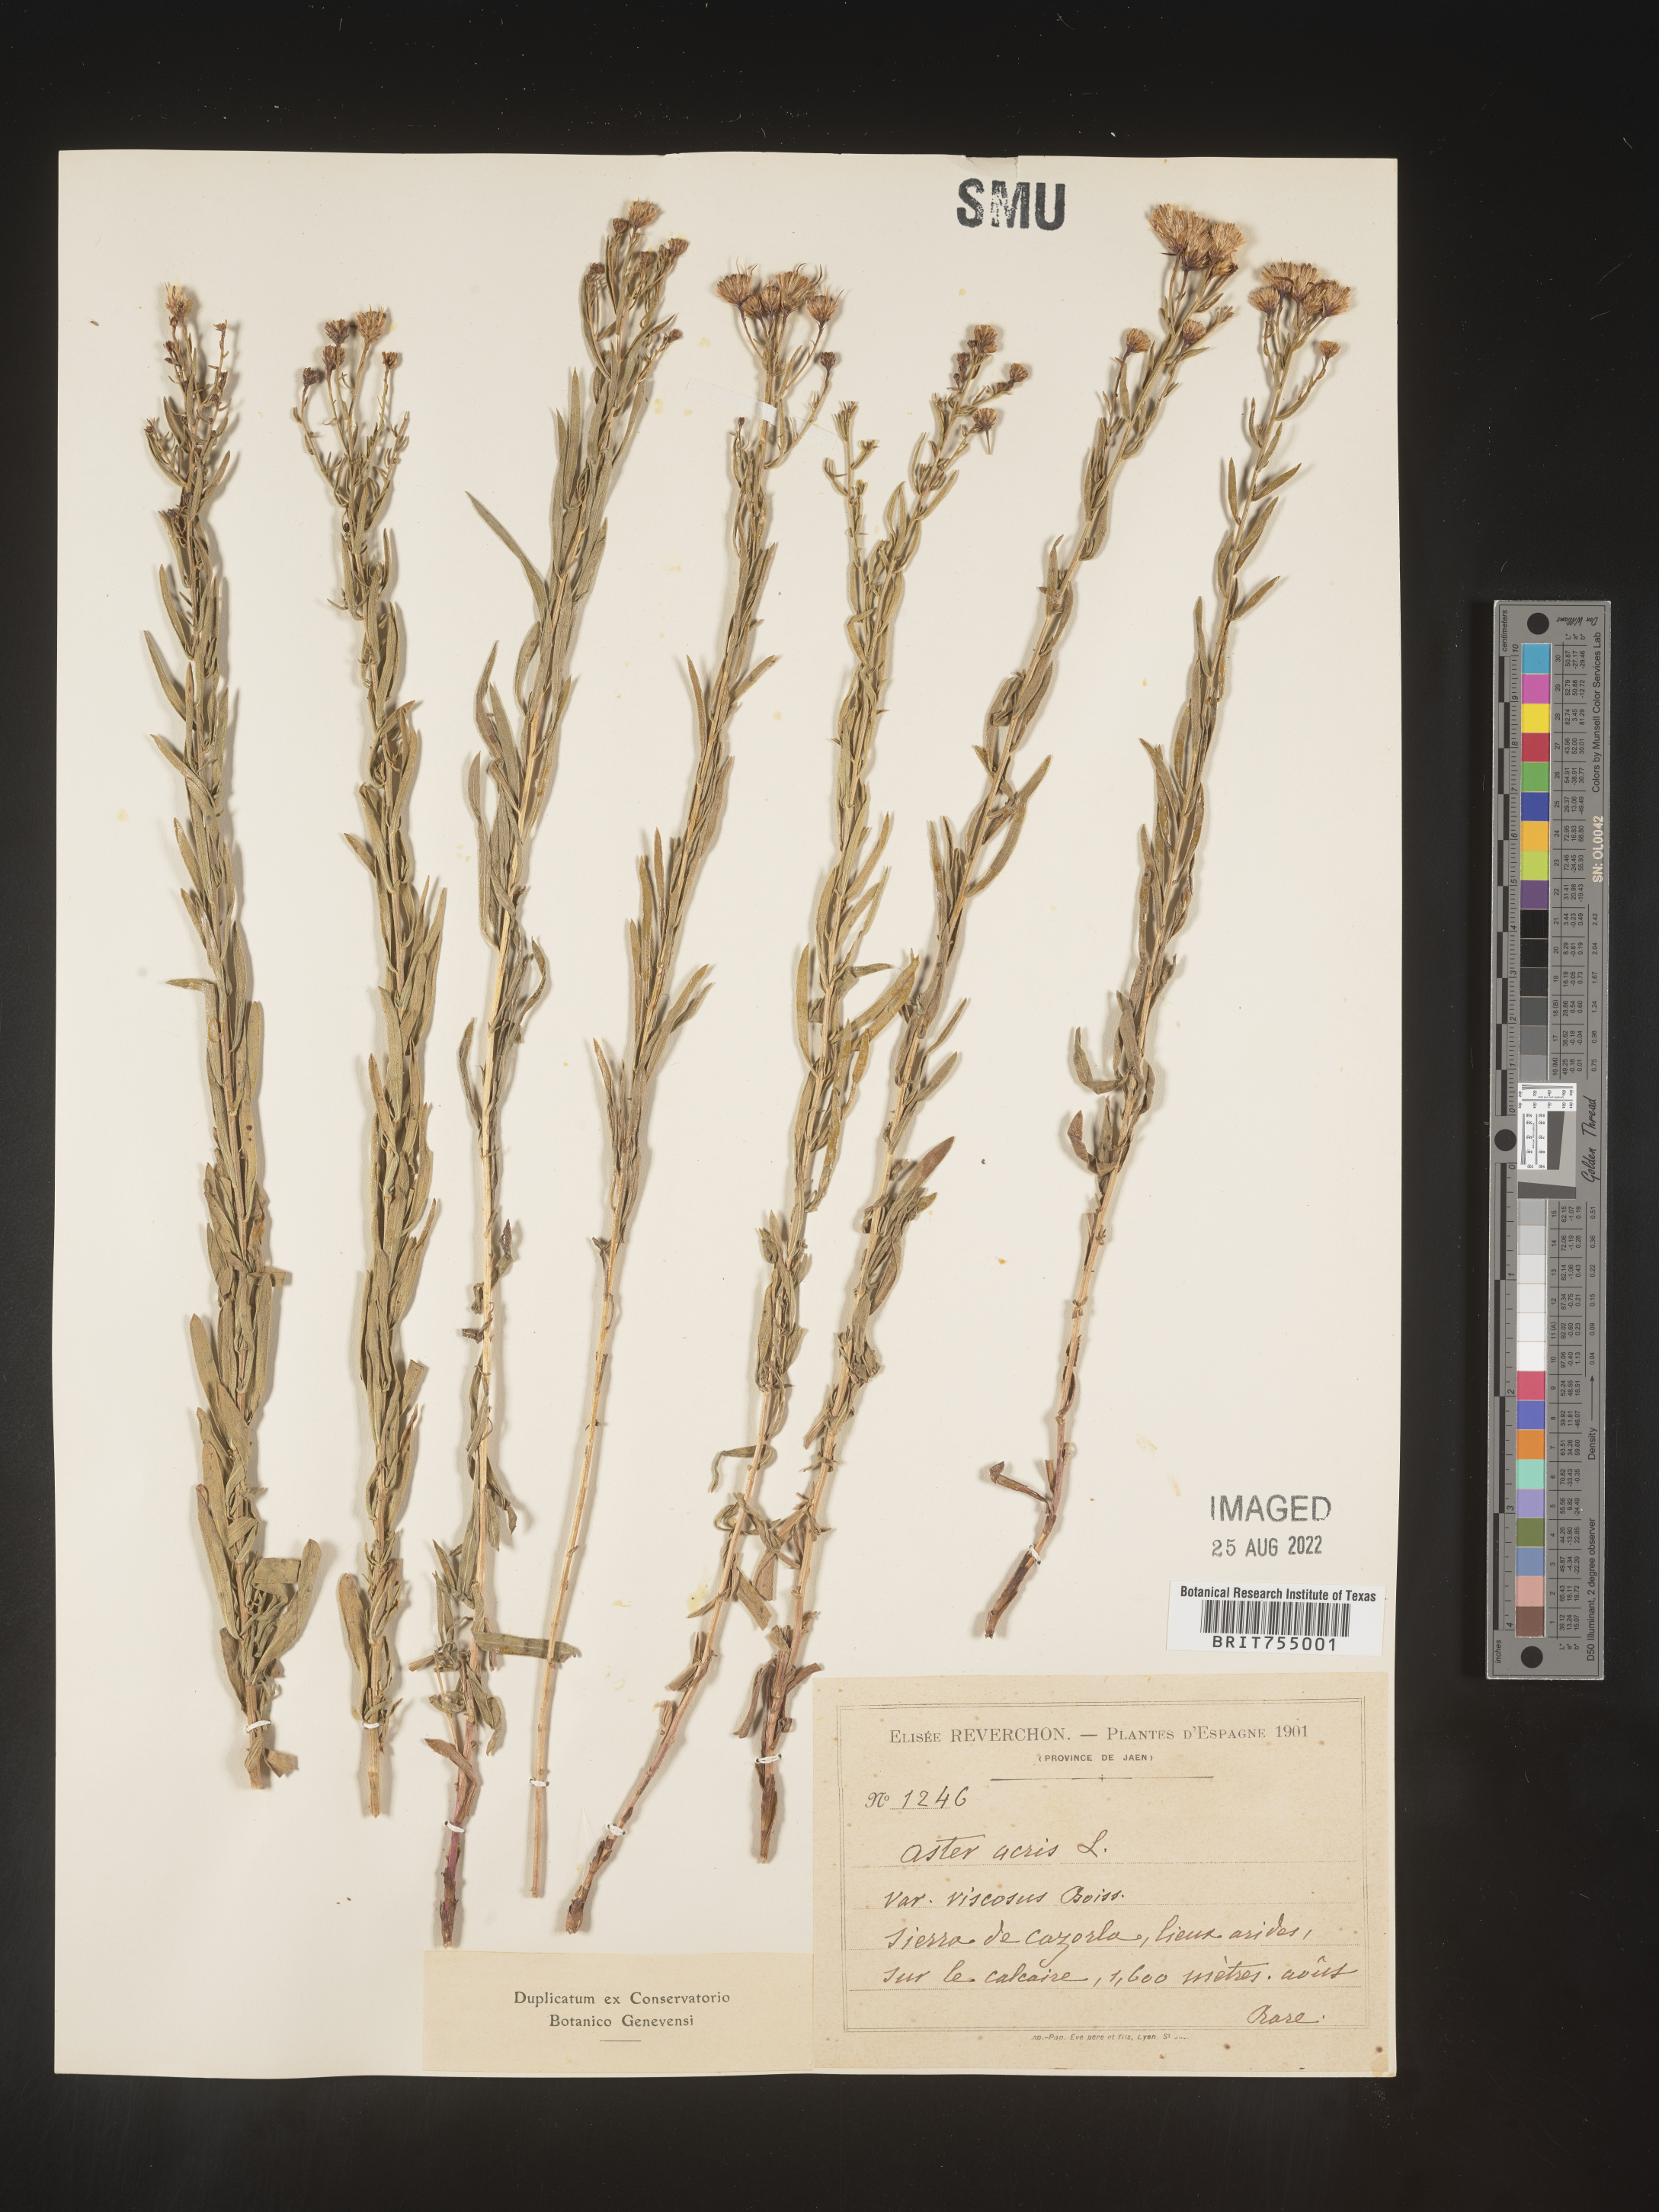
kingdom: Plantae
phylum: Tracheophyta
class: Magnoliopsida
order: Asterales
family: Asteraceae
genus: Symphyotrichum
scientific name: Symphyotrichum
